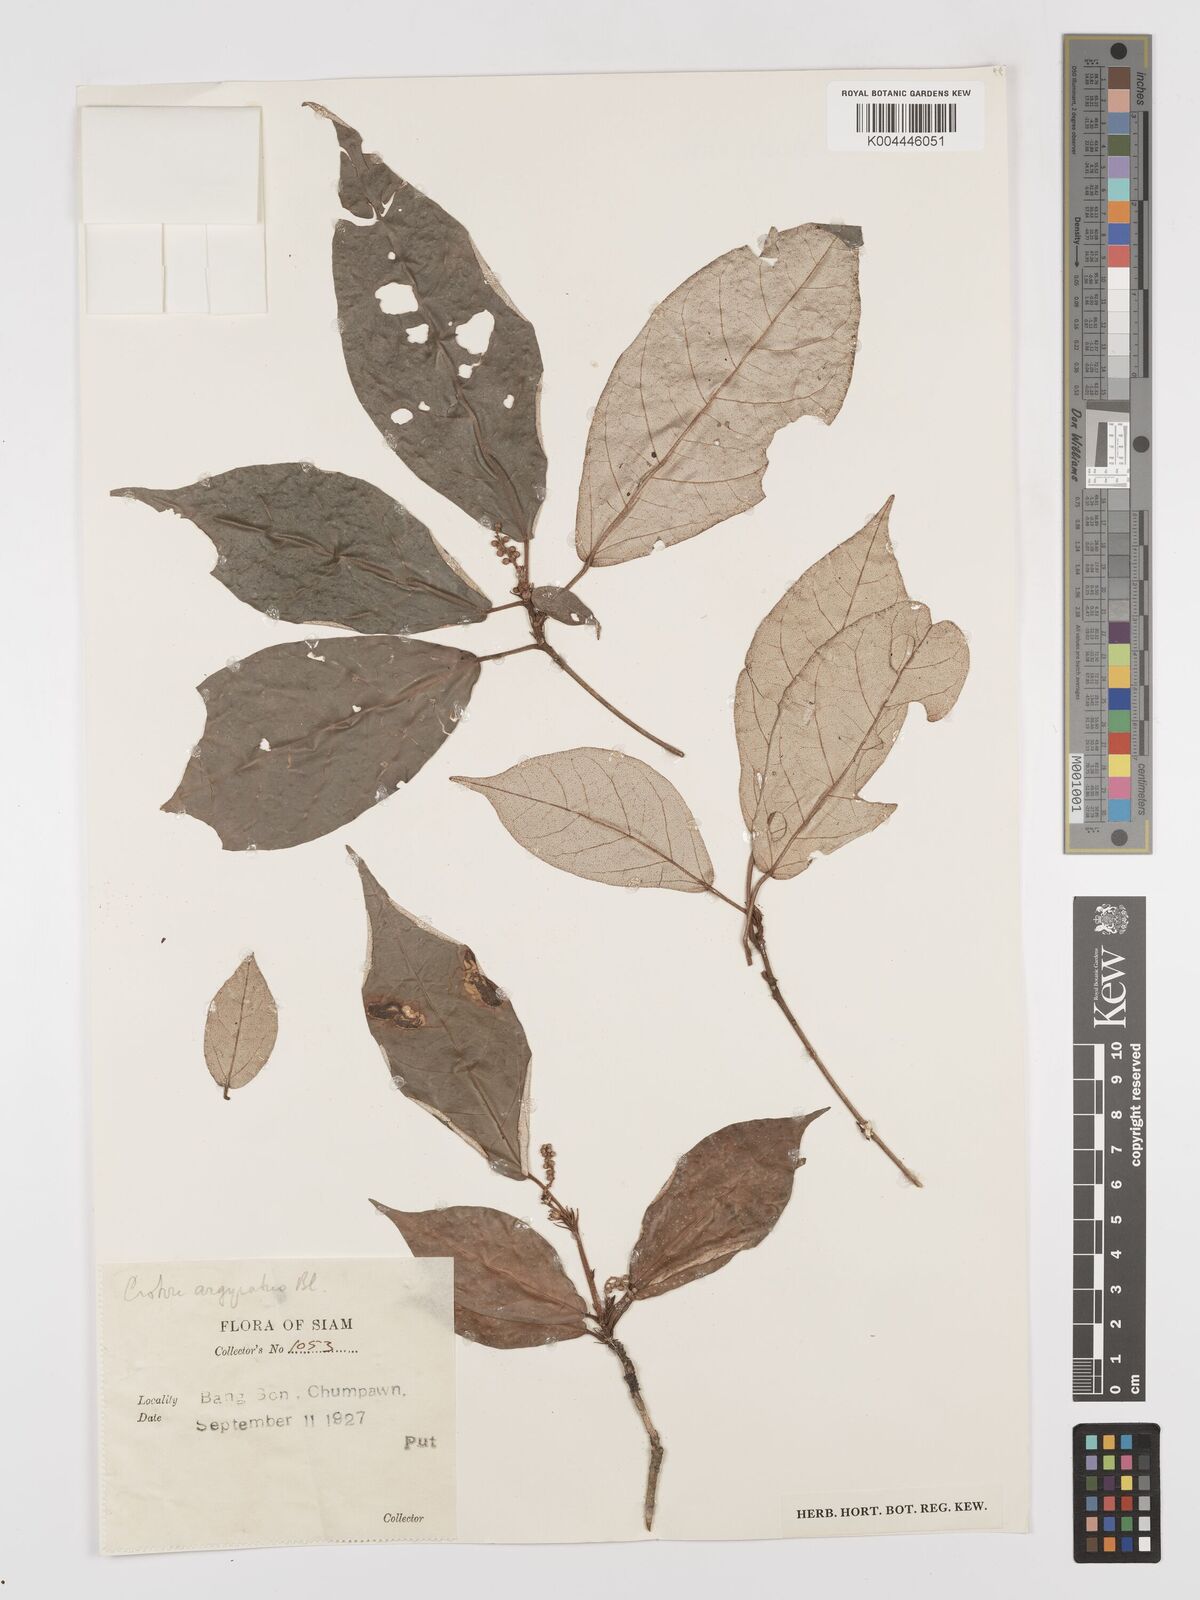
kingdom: Plantae
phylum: Tracheophyta
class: Magnoliopsida
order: Malpighiales
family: Euphorbiaceae
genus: Croton
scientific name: Croton argyratus
